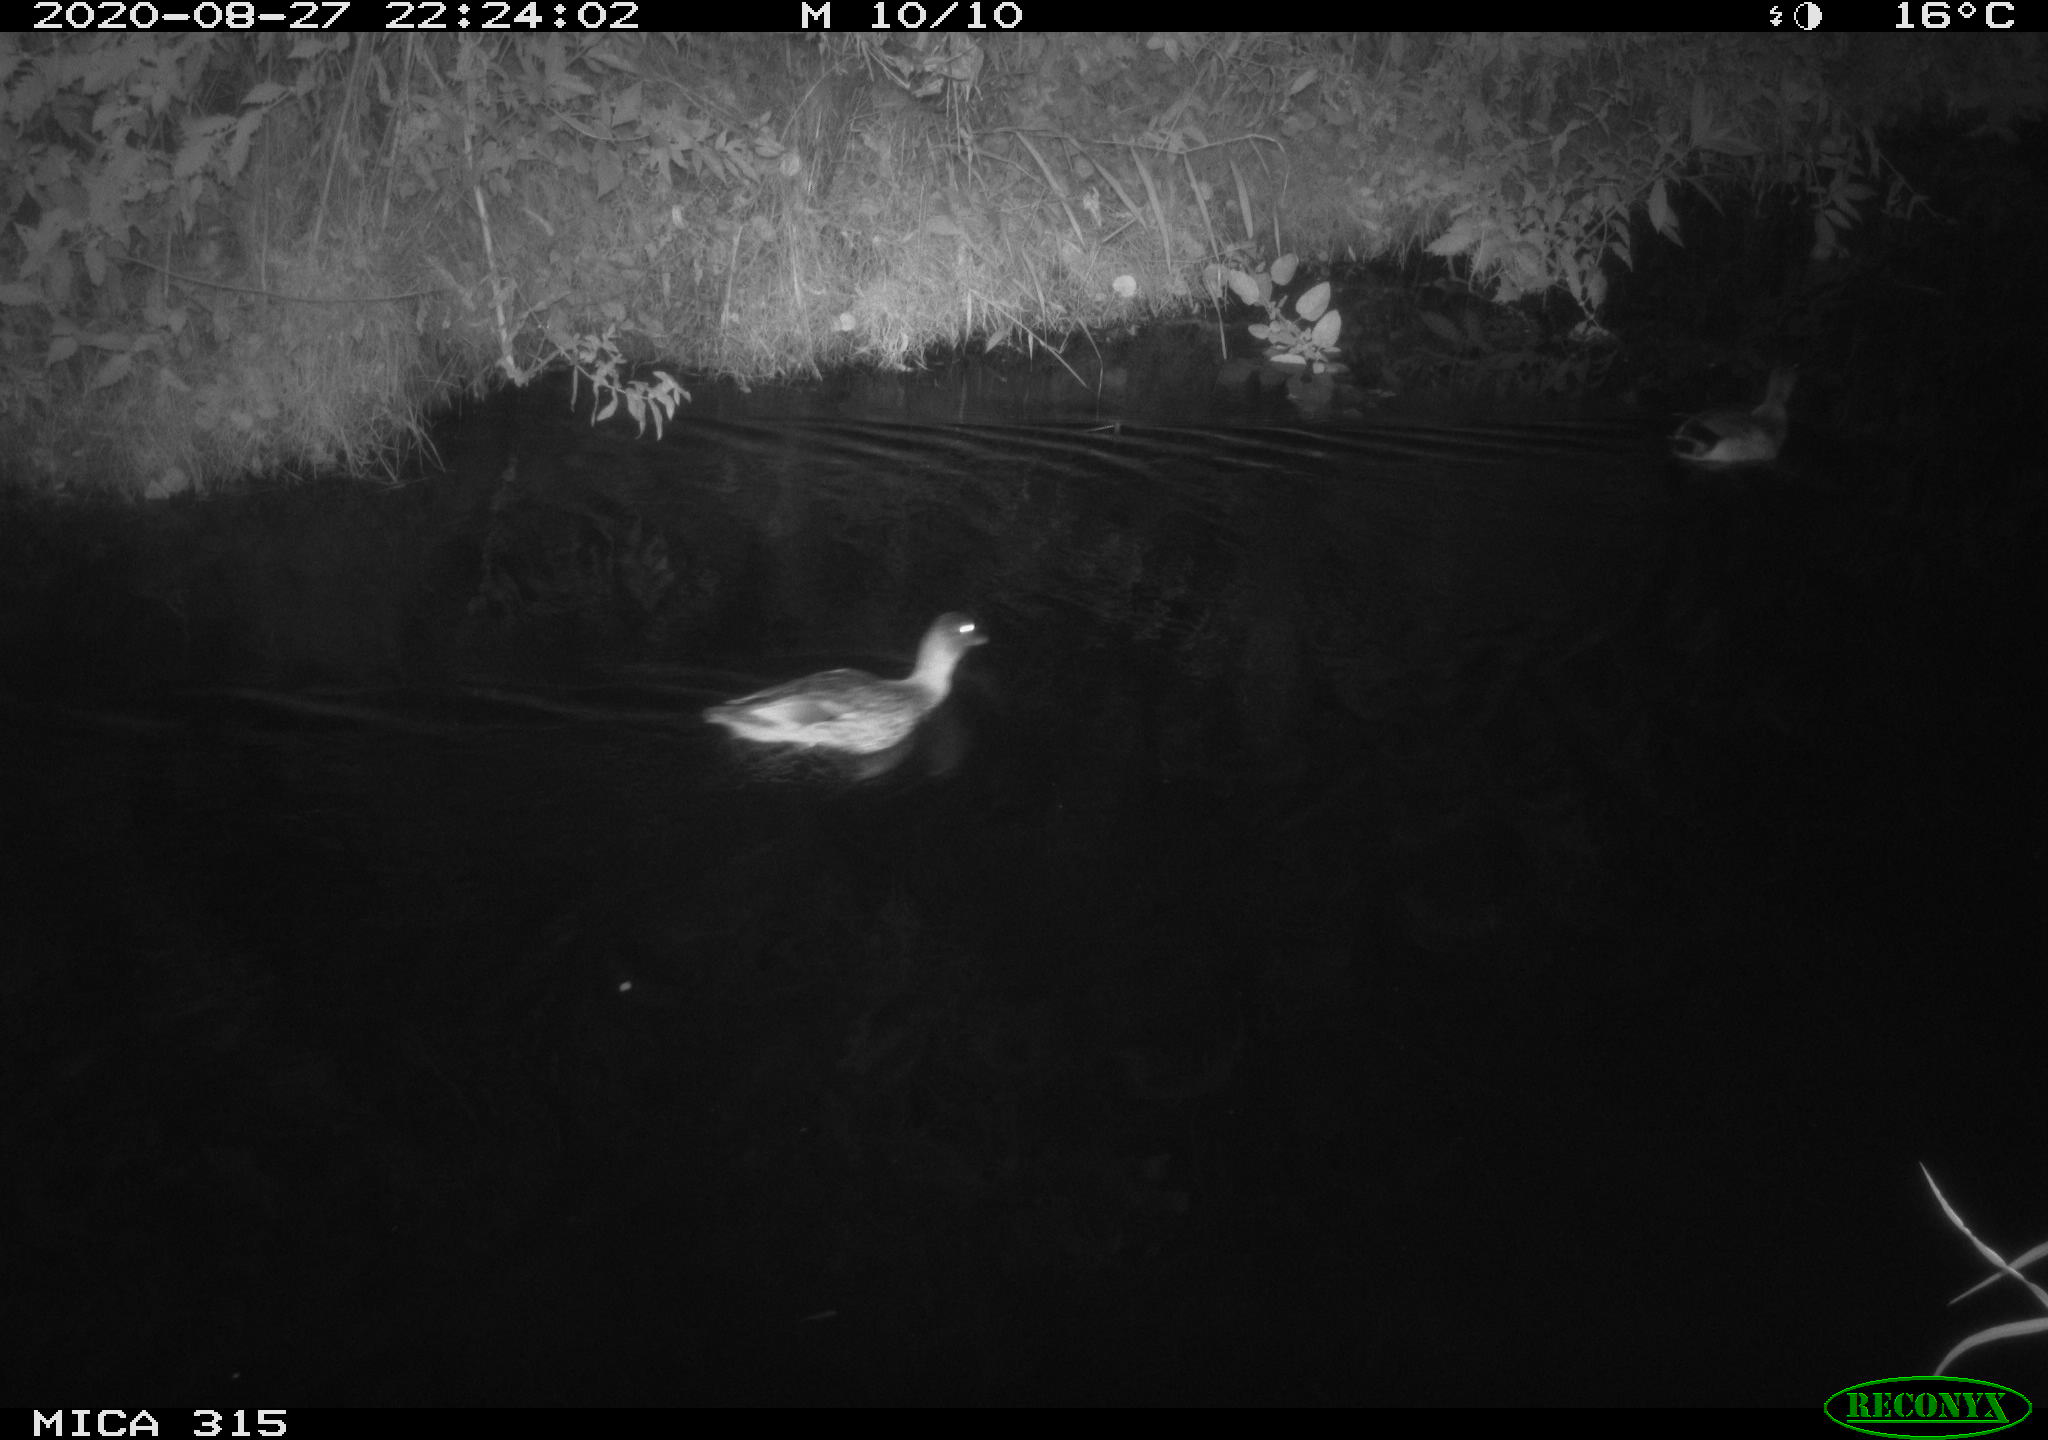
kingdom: Animalia
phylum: Chordata
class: Aves
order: Anseriformes
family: Anatidae
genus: Anas
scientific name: Anas platyrhynchos
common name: Mallard
